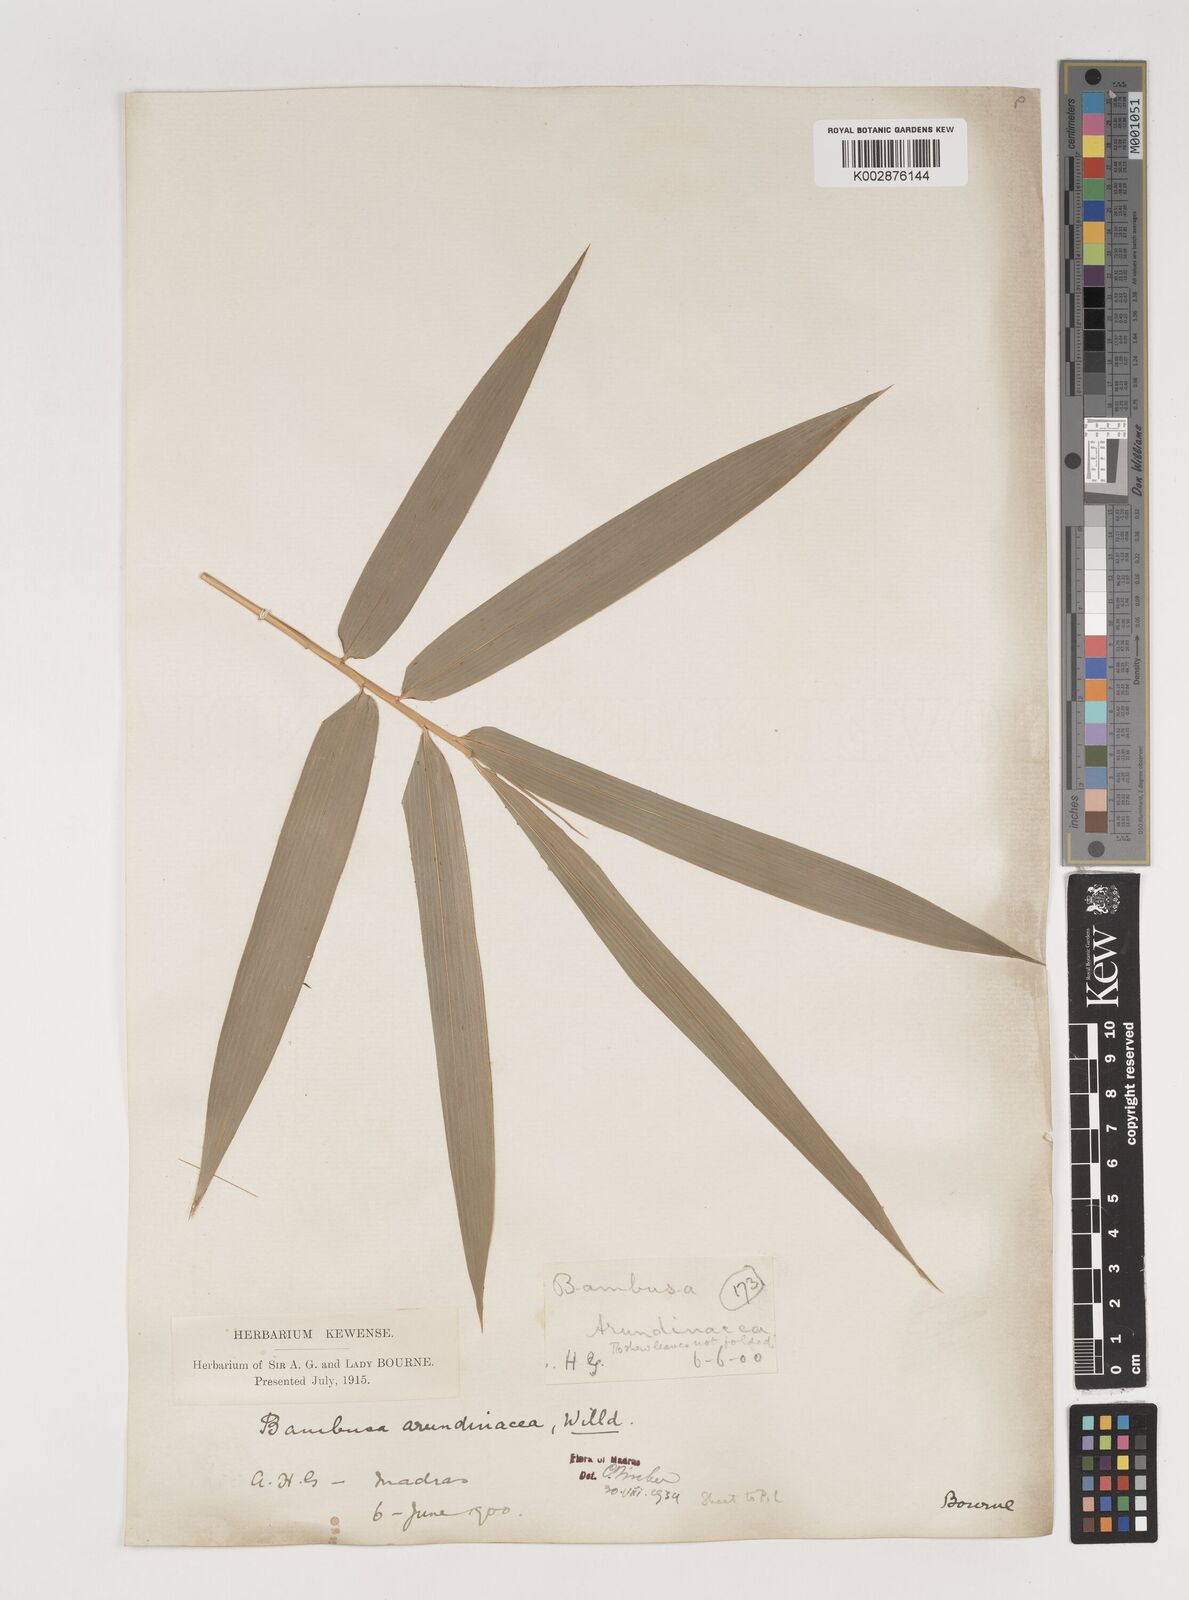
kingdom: Plantae
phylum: Tracheophyta
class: Liliopsida
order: Poales
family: Poaceae
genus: Bambusa
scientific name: Bambusa bambos
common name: Indian thorny bamboo
